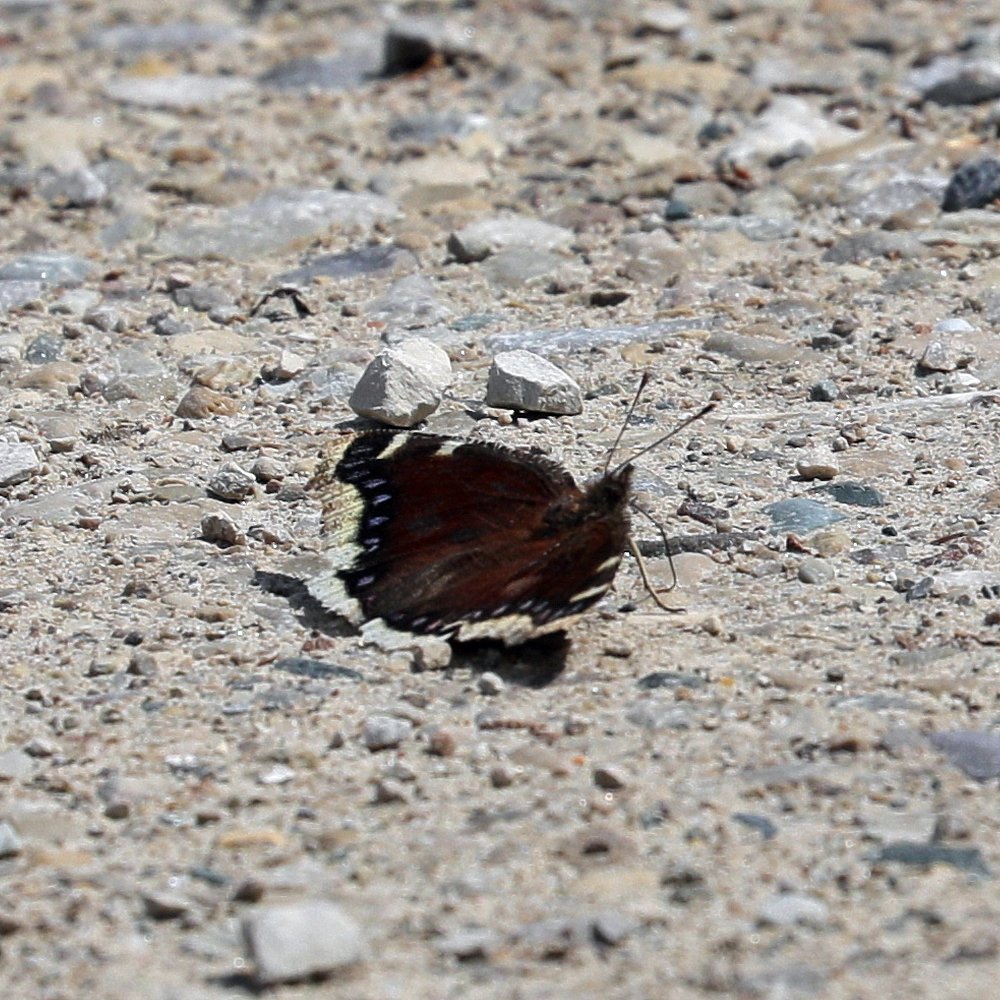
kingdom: Animalia
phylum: Arthropoda
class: Insecta
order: Lepidoptera
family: Nymphalidae
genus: Nymphalis
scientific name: Nymphalis antiopa
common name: Mourning Cloak
